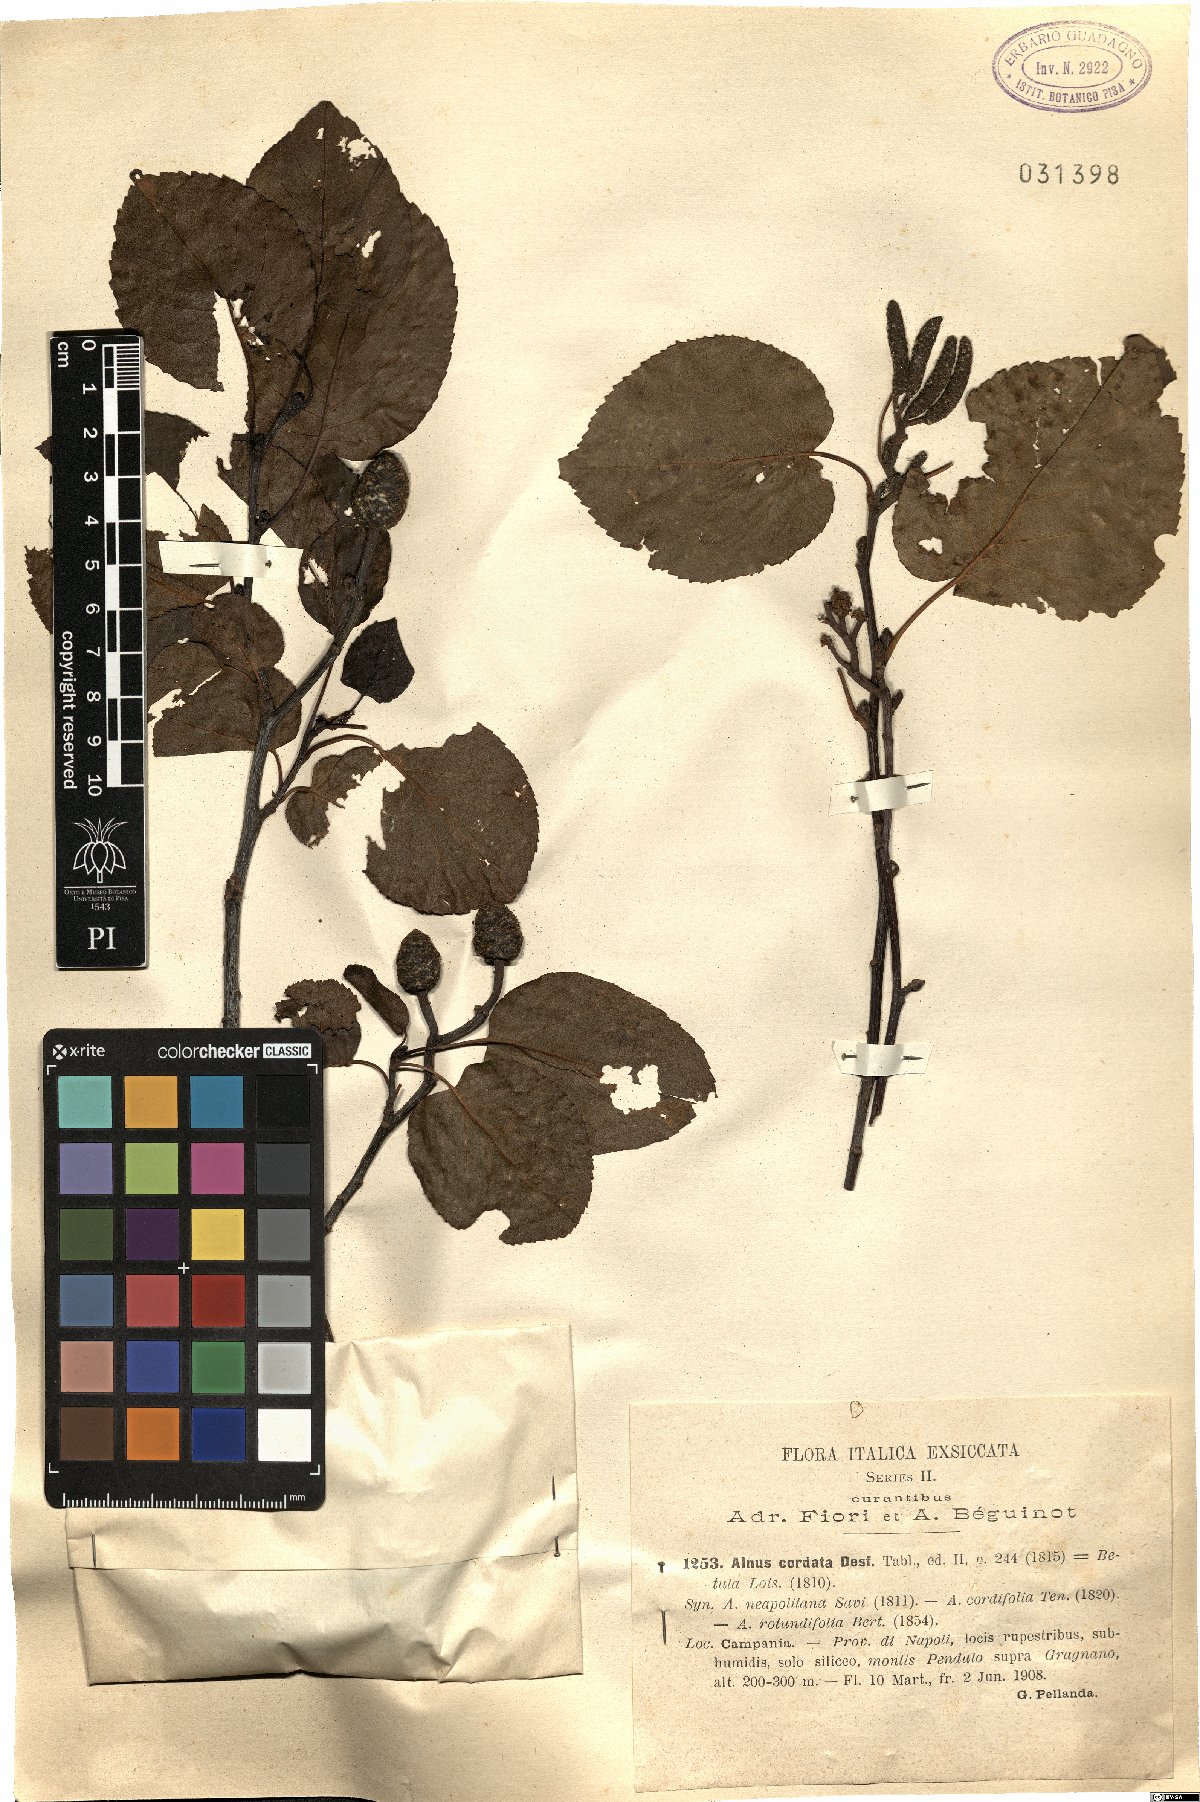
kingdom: Plantae
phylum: Tracheophyta
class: Magnoliopsida
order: Fagales
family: Betulaceae
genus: Alnus
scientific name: Alnus cordata
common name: Italian alder
